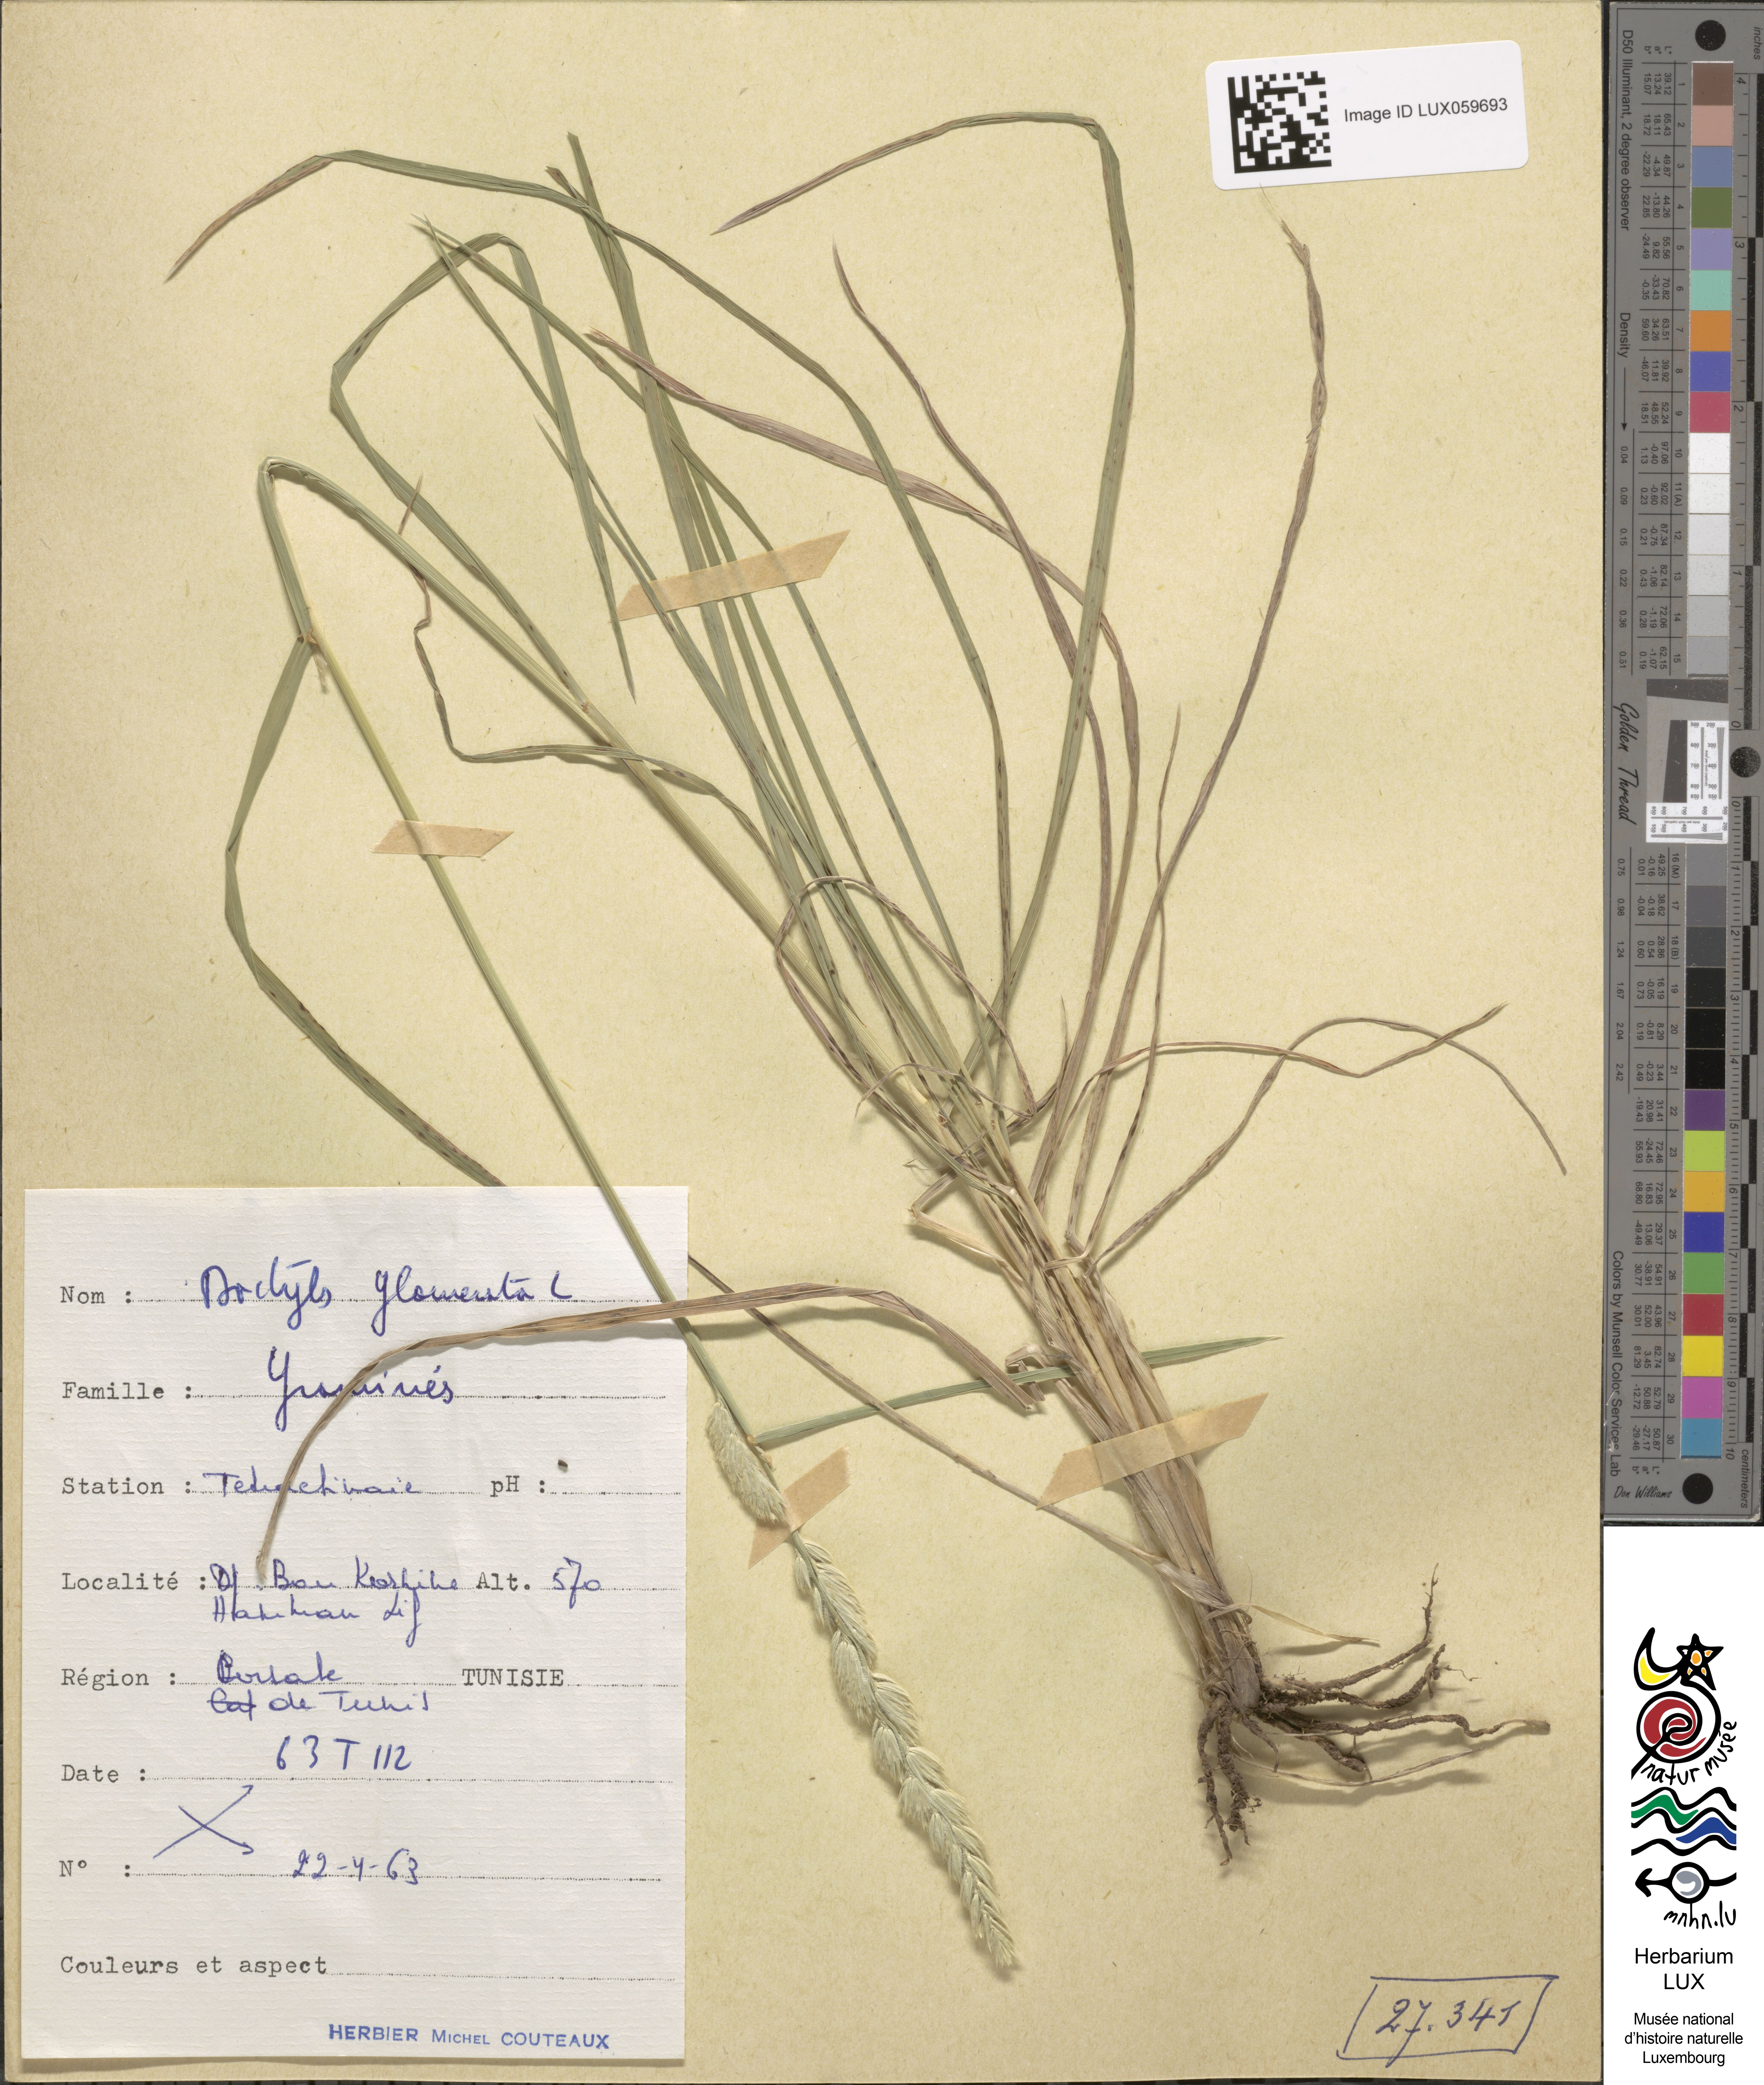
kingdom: Plantae
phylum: Tracheophyta
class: Liliopsida
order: Poales
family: Poaceae
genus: Dactylis
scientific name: Dactylis glomerata
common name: Orchardgrass
